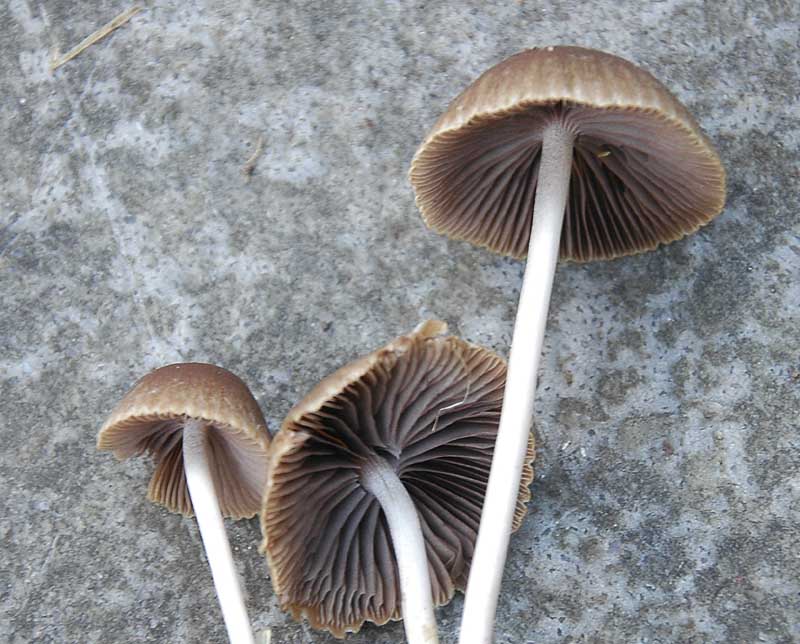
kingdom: Fungi
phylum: Basidiomycota
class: Agaricomycetes
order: Agaricales
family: Psathyrellaceae
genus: Psathyrella
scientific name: Psathyrella microrhiza
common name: rod-mørkhat
